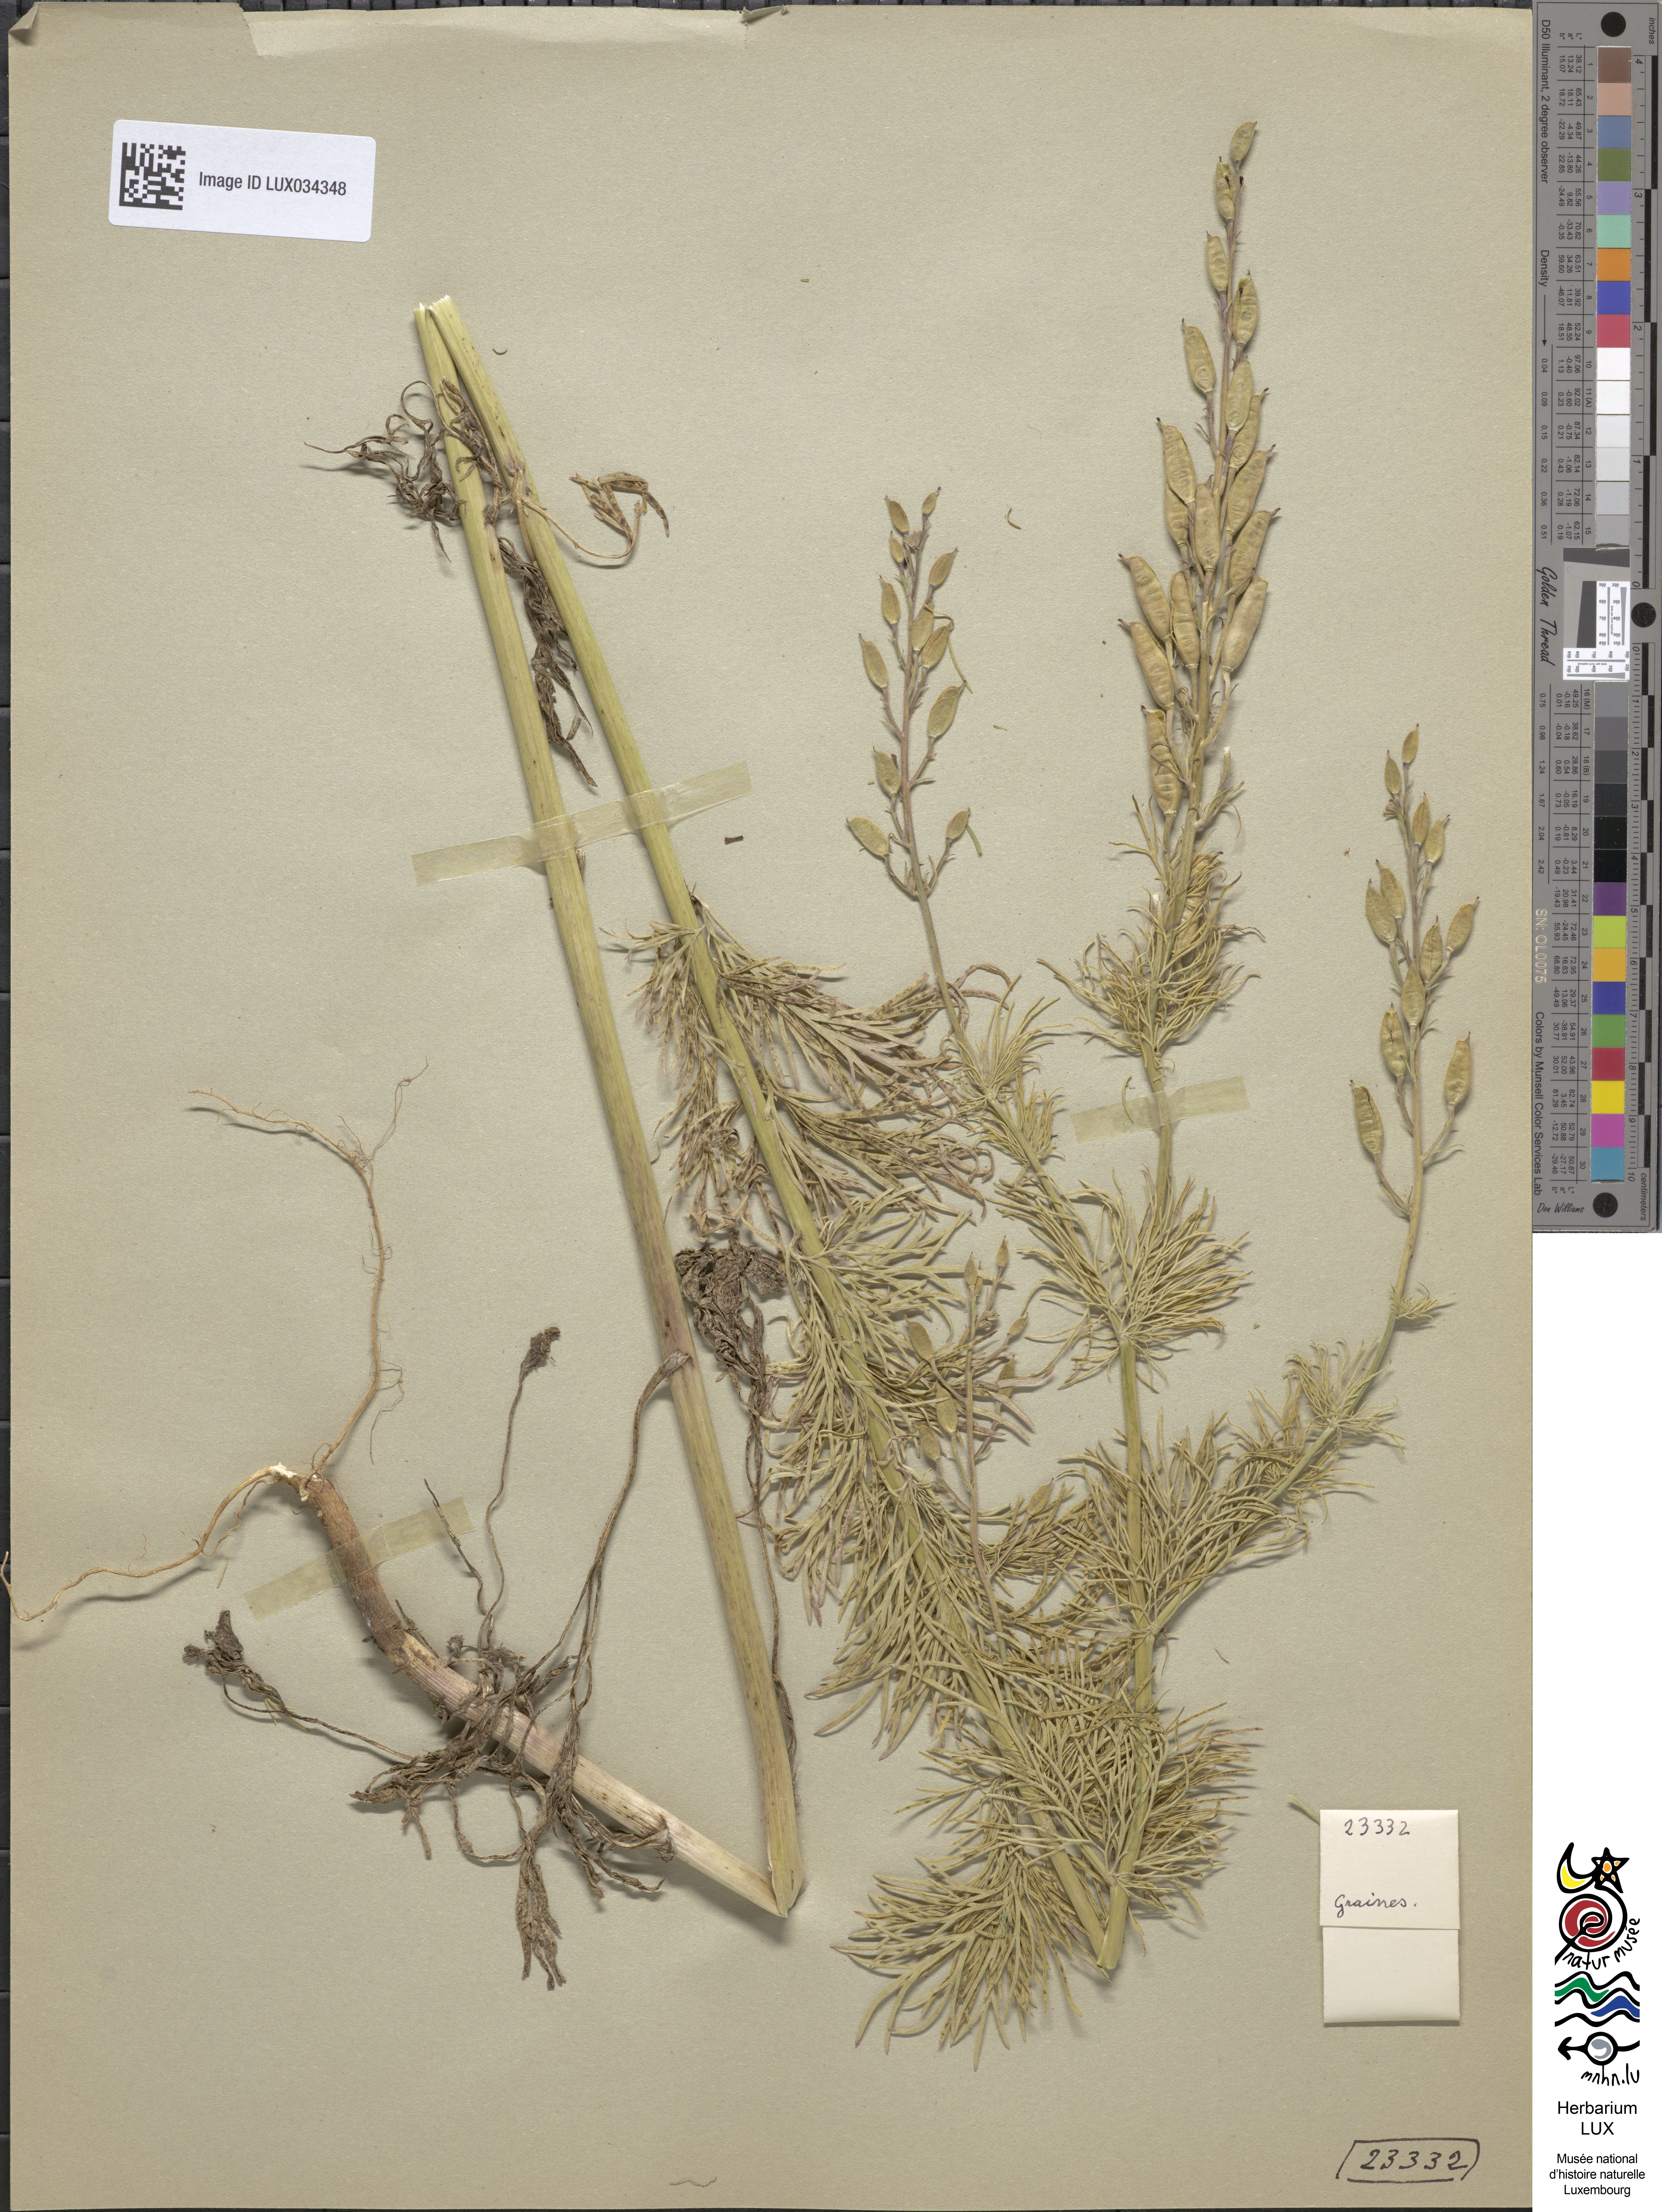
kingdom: Plantae
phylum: Tracheophyta
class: Magnoliopsida
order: Ranunculales
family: Ranunculaceae
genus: Delphinium
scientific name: Delphinium consolida
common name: Branching larkspur
